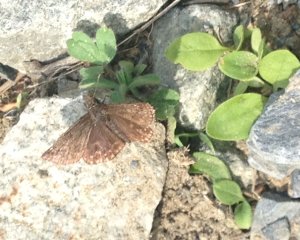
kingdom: Animalia
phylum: Arthropoda
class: Insecta
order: Lepidoptera
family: Hesperiidae
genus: Erynnis
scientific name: Erynnis icelus
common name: Dreamy Duskywing
